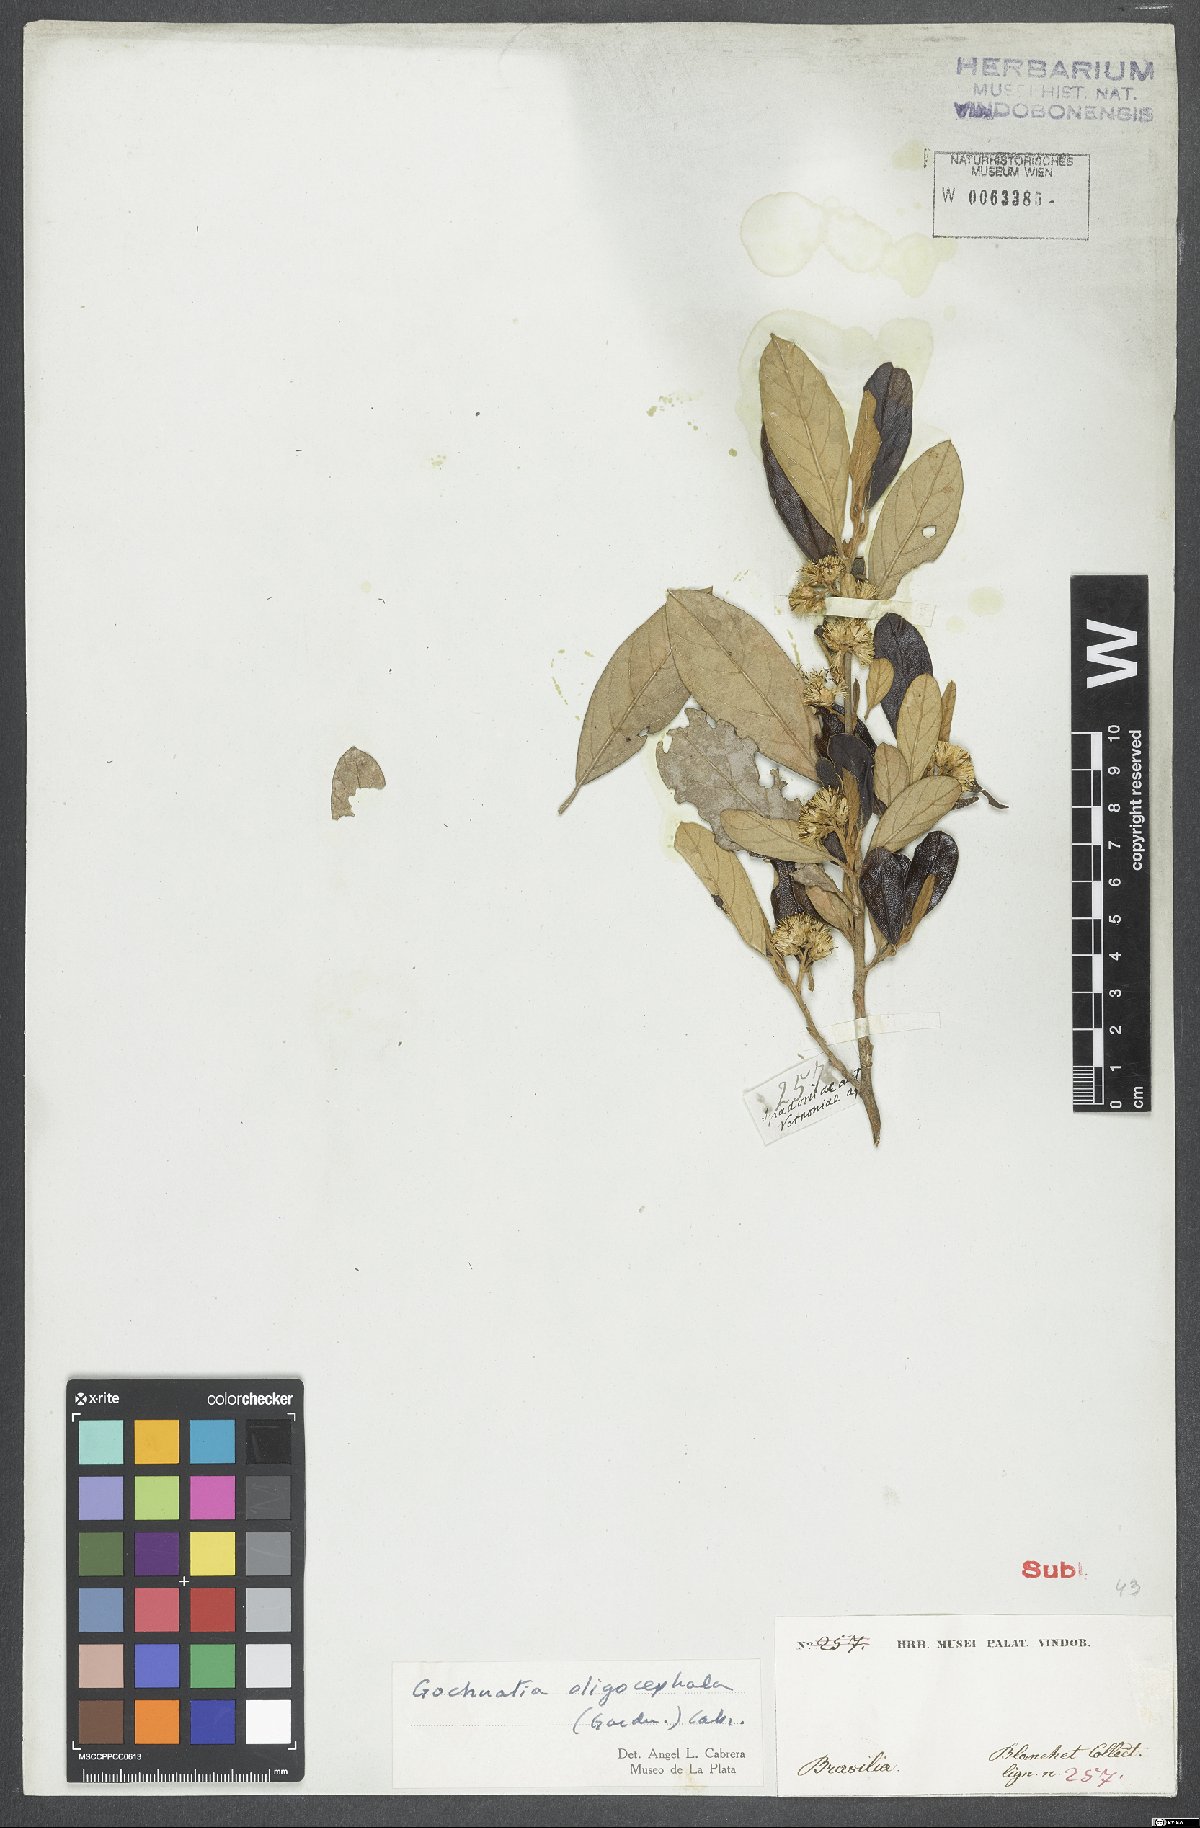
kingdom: Plantae
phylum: Tracheophyta
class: Magnoliopsida
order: Asterales
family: Asteraceae
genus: Moquiniastrum
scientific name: Moquiniastrum oligocephalum
